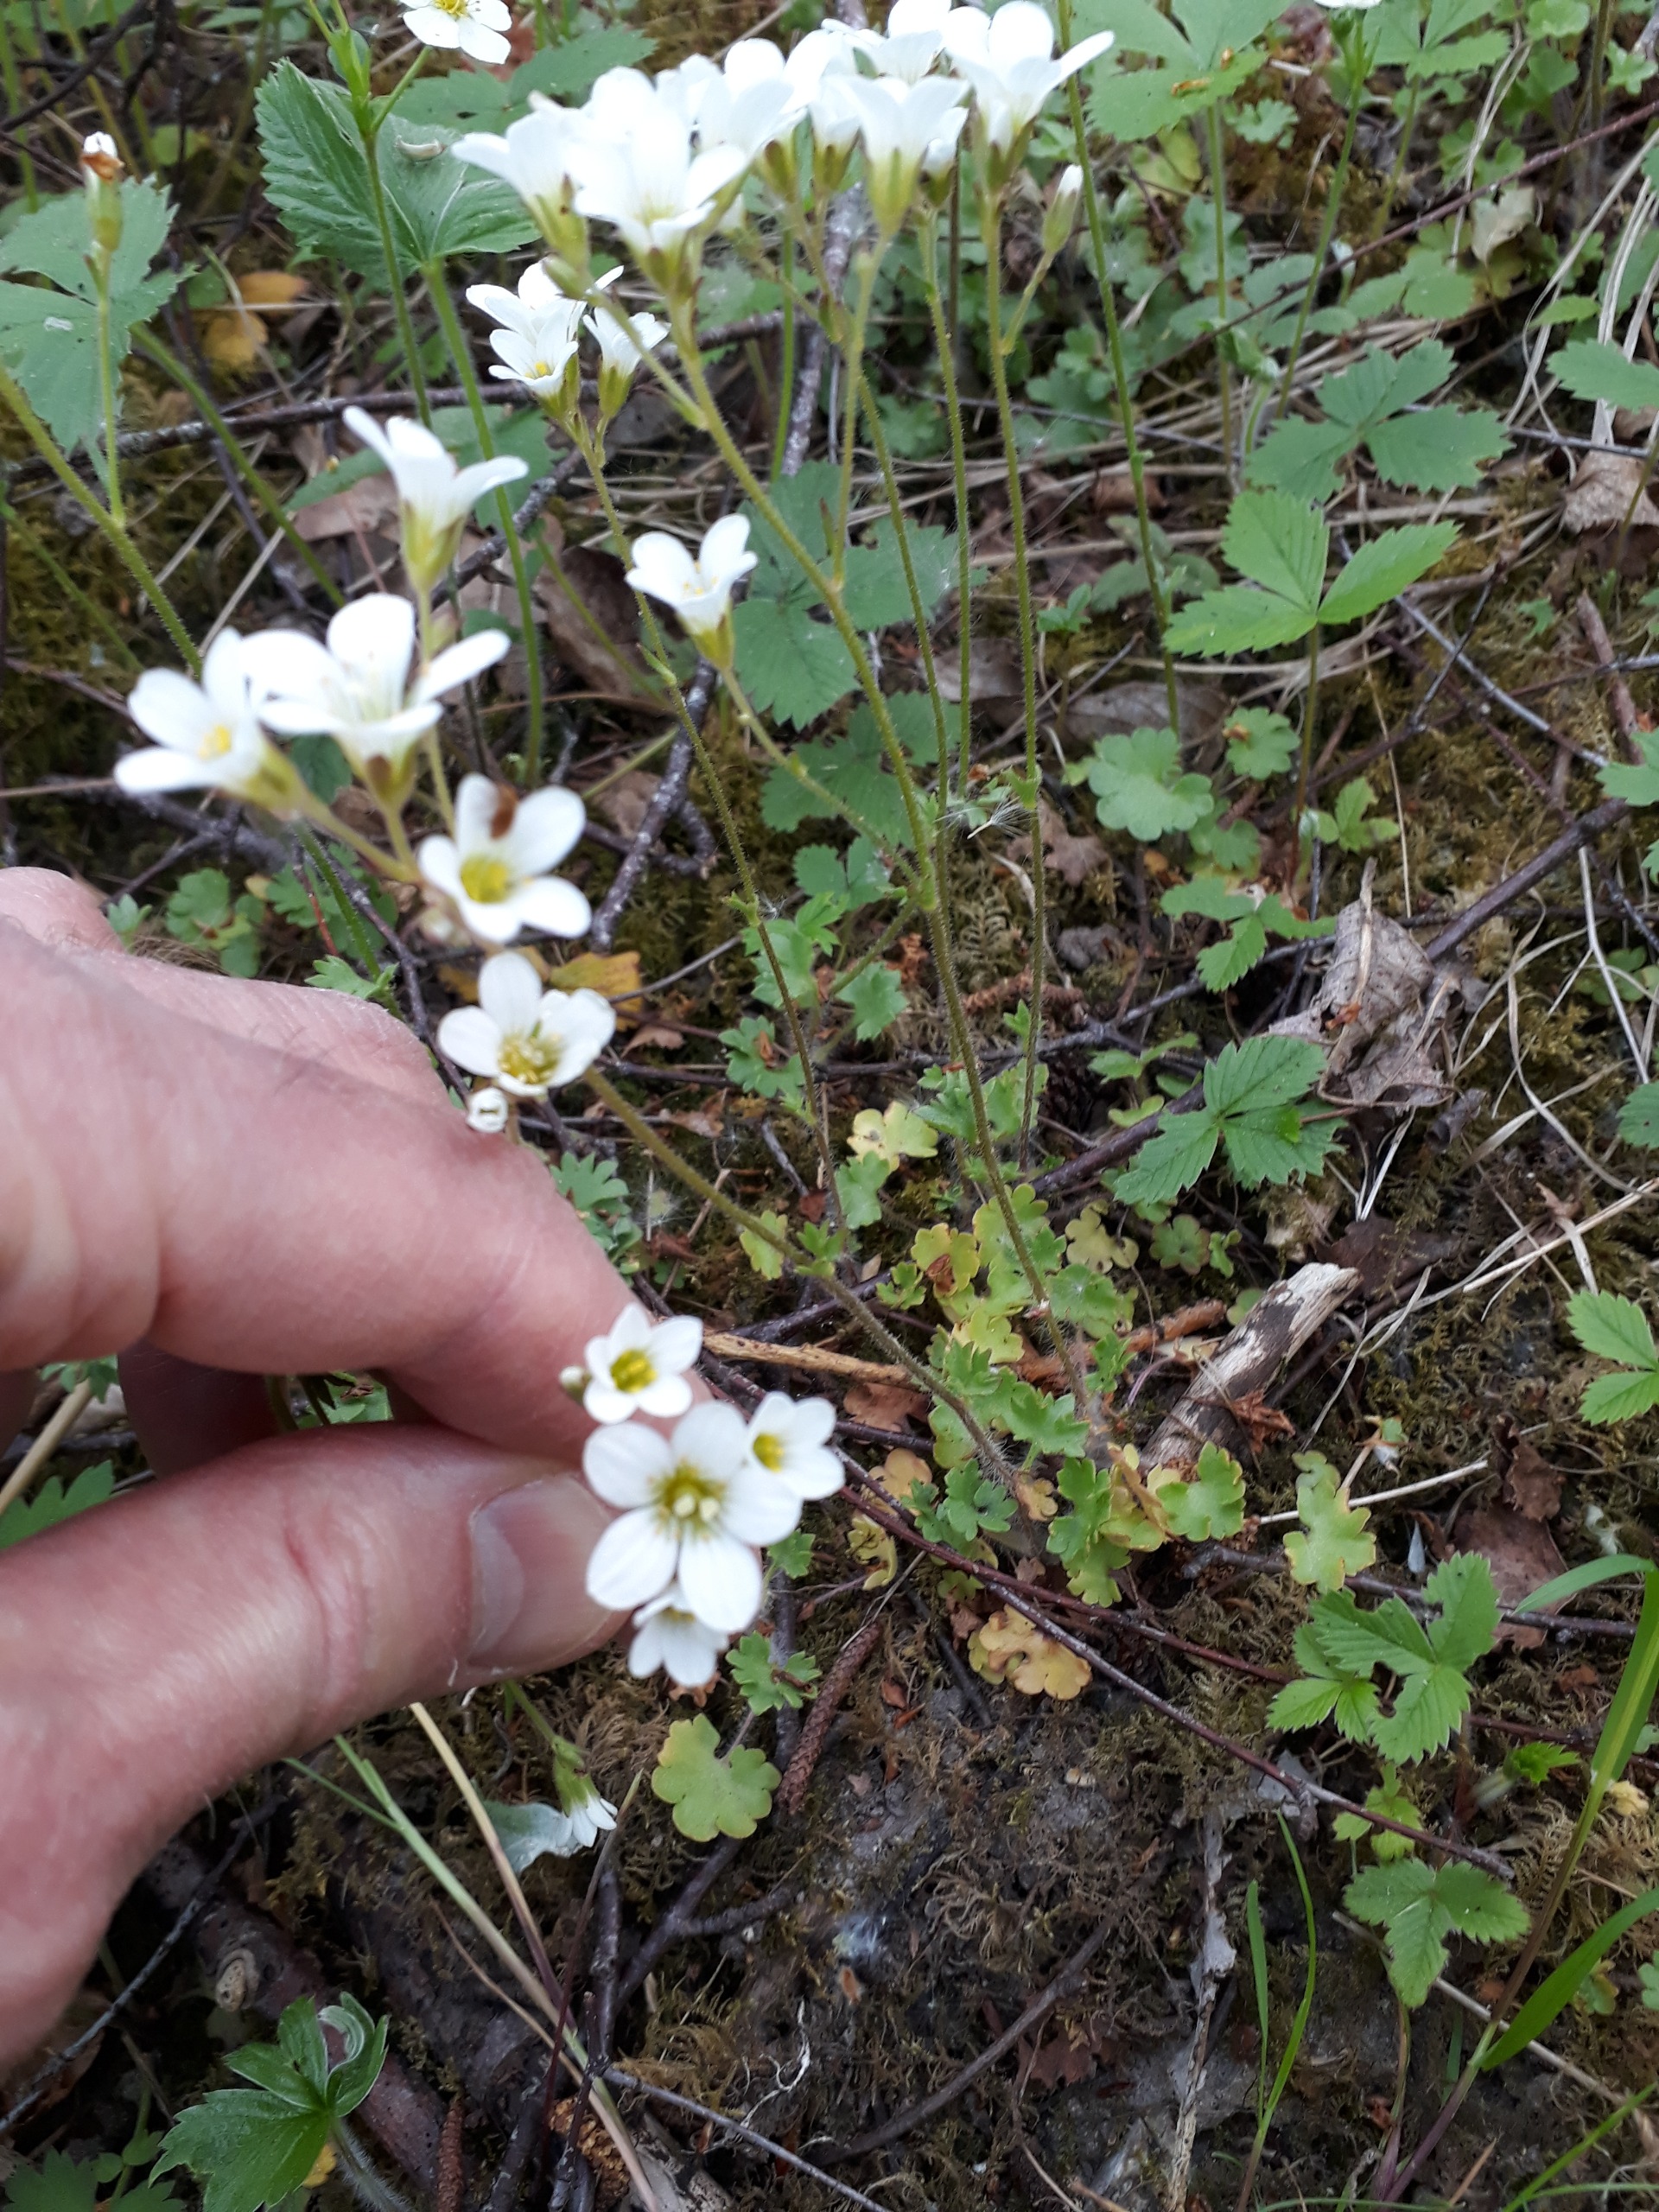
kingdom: Plantae
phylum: Tracheophyta
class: Magnoliopsida
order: Saxifragales
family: Saxifragaceae
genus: Saxifraga
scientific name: Saxifraga granulata
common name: Kornet stenbræk
